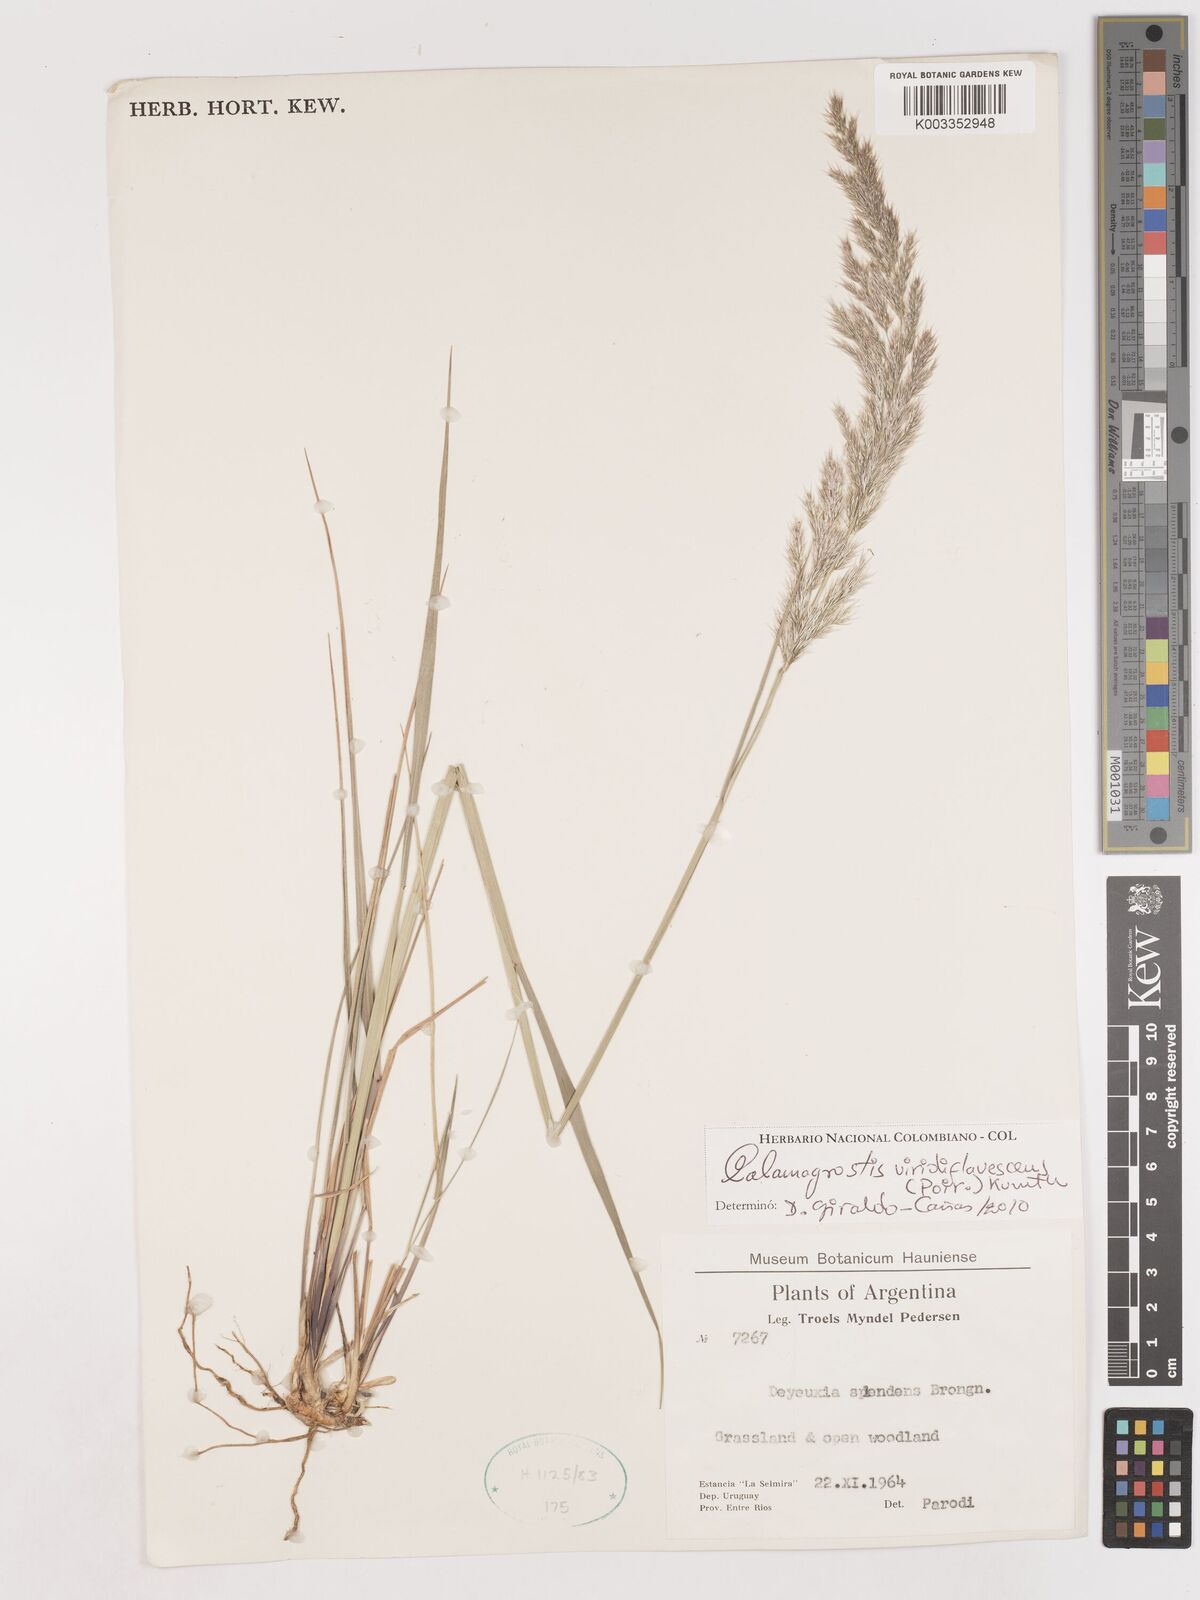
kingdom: Plantae
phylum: Tracheophyta
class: Liliopsida
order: Poales
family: Poaceae
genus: Cinnagrostis
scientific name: Cinnagrostis viridiflavescens
